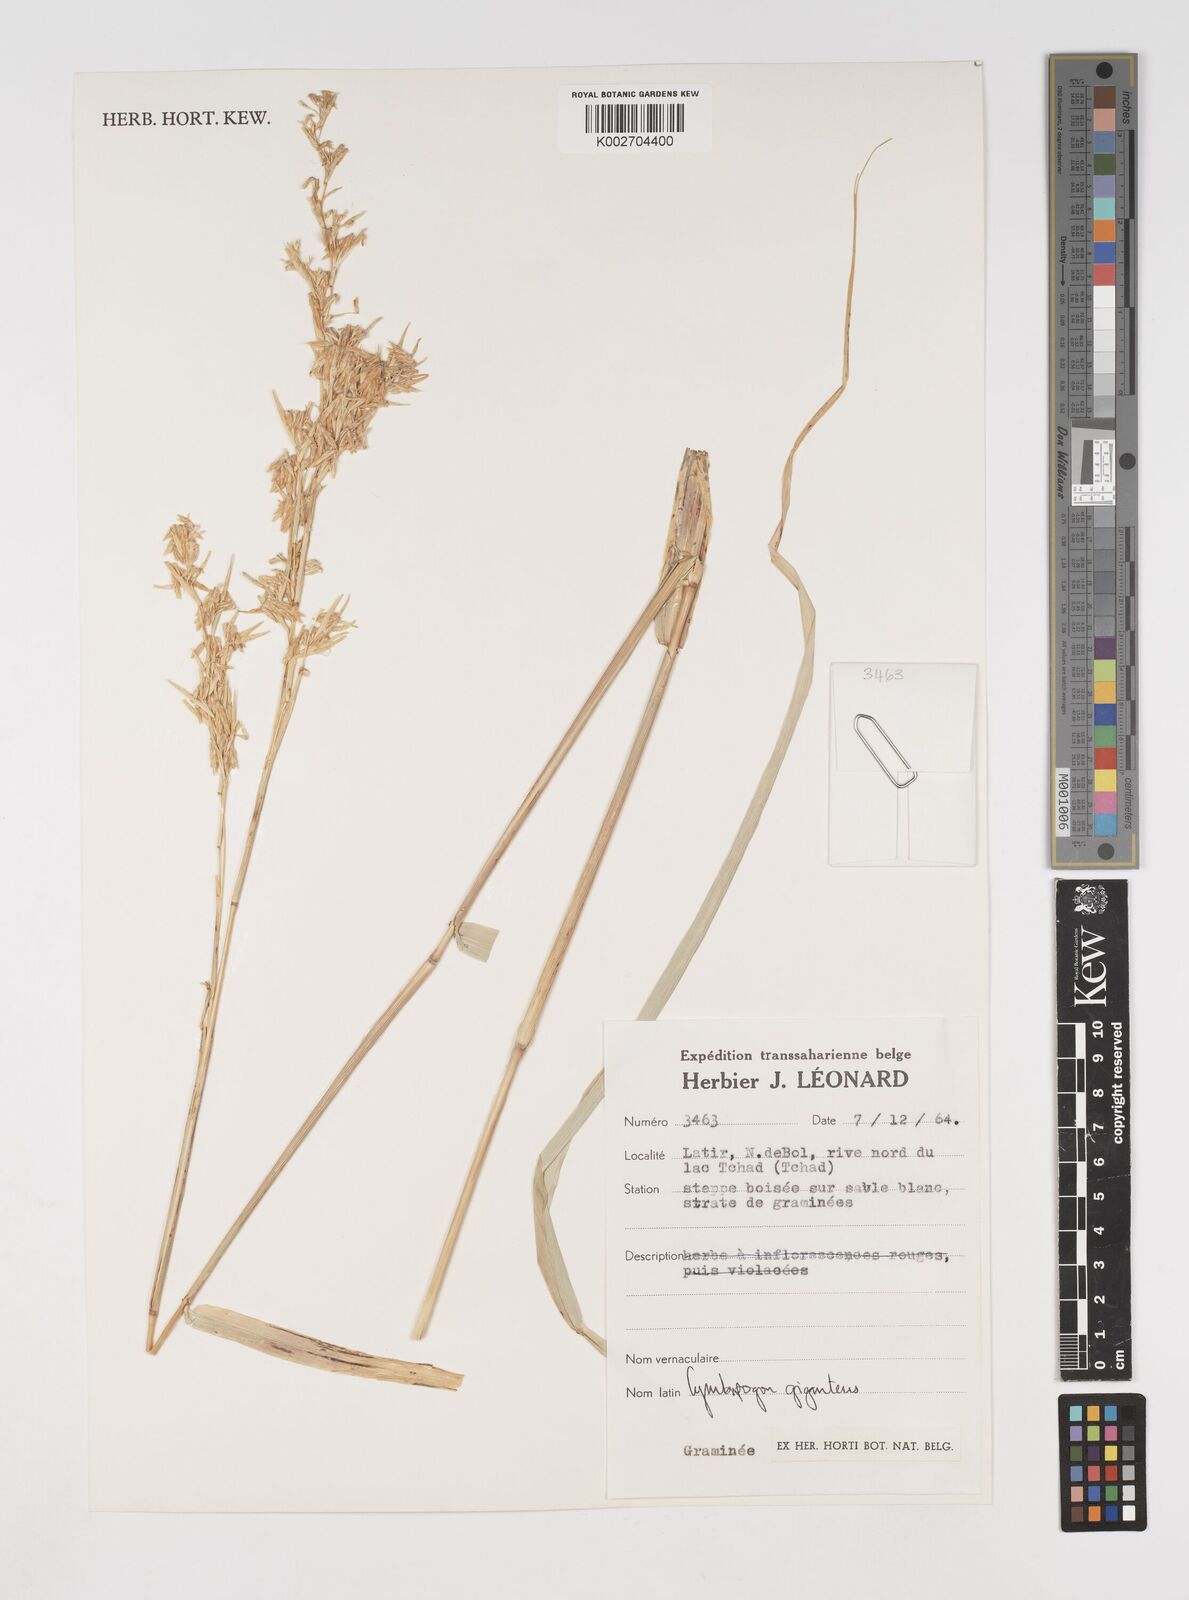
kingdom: Plantae
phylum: Tracheophyta
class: Liliopsida
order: Poales
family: Poaceae
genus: Cymbopogon
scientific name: Cymbopogon giganteus
